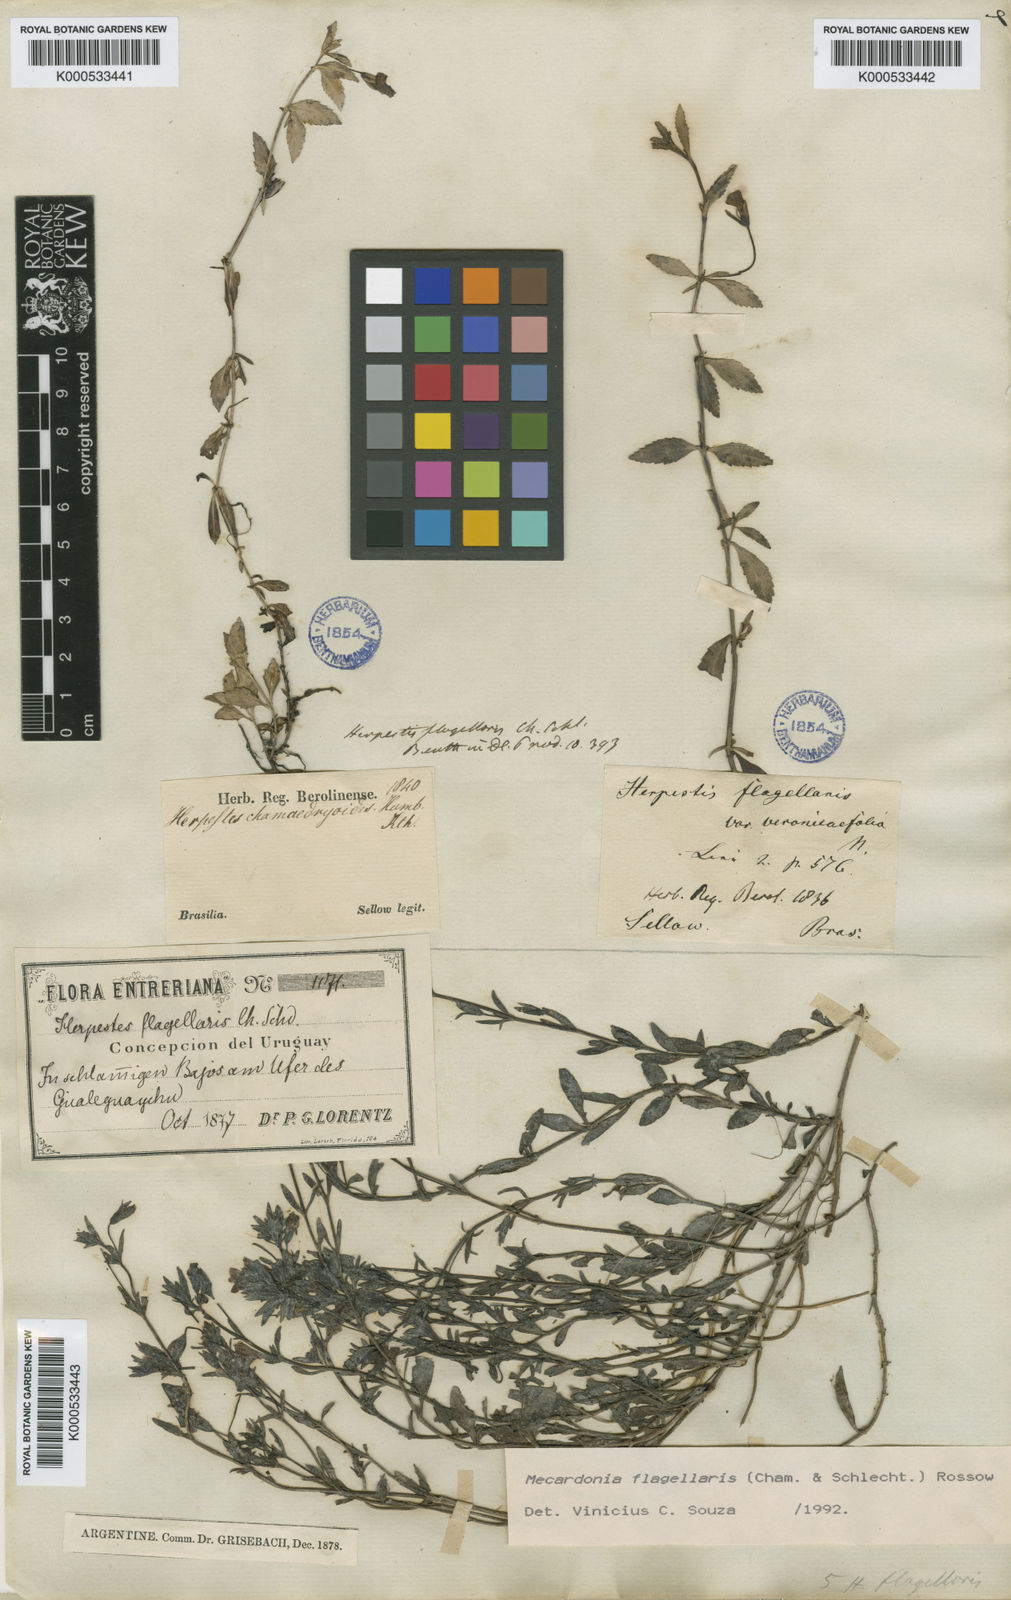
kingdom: Plantae
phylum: Tracheophyta
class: Magnoliopsida
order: Lamiales
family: Plantaginaceae
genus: Mecardonia
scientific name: Mecardonia flagellaris
